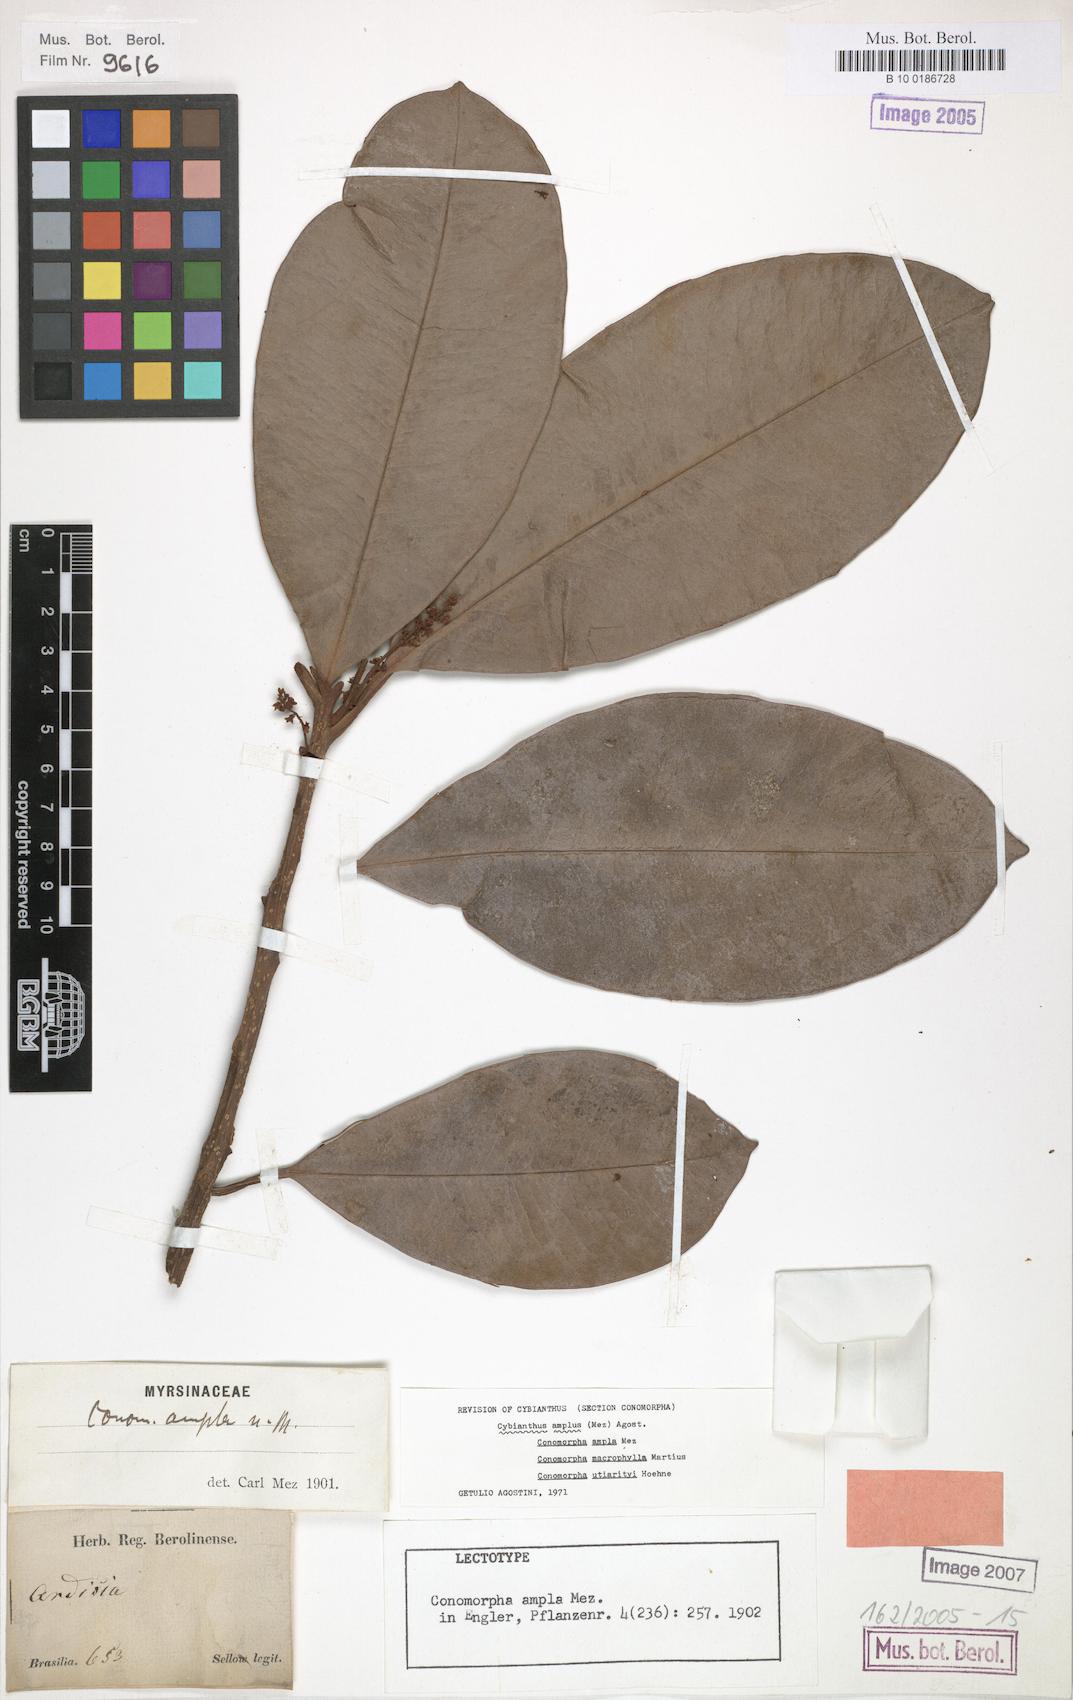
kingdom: Plantae
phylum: Tracheophyta
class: Magnoliopsida
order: Ericales
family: Primulaceae
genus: Cybianthus
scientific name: Cybianthus amplus
